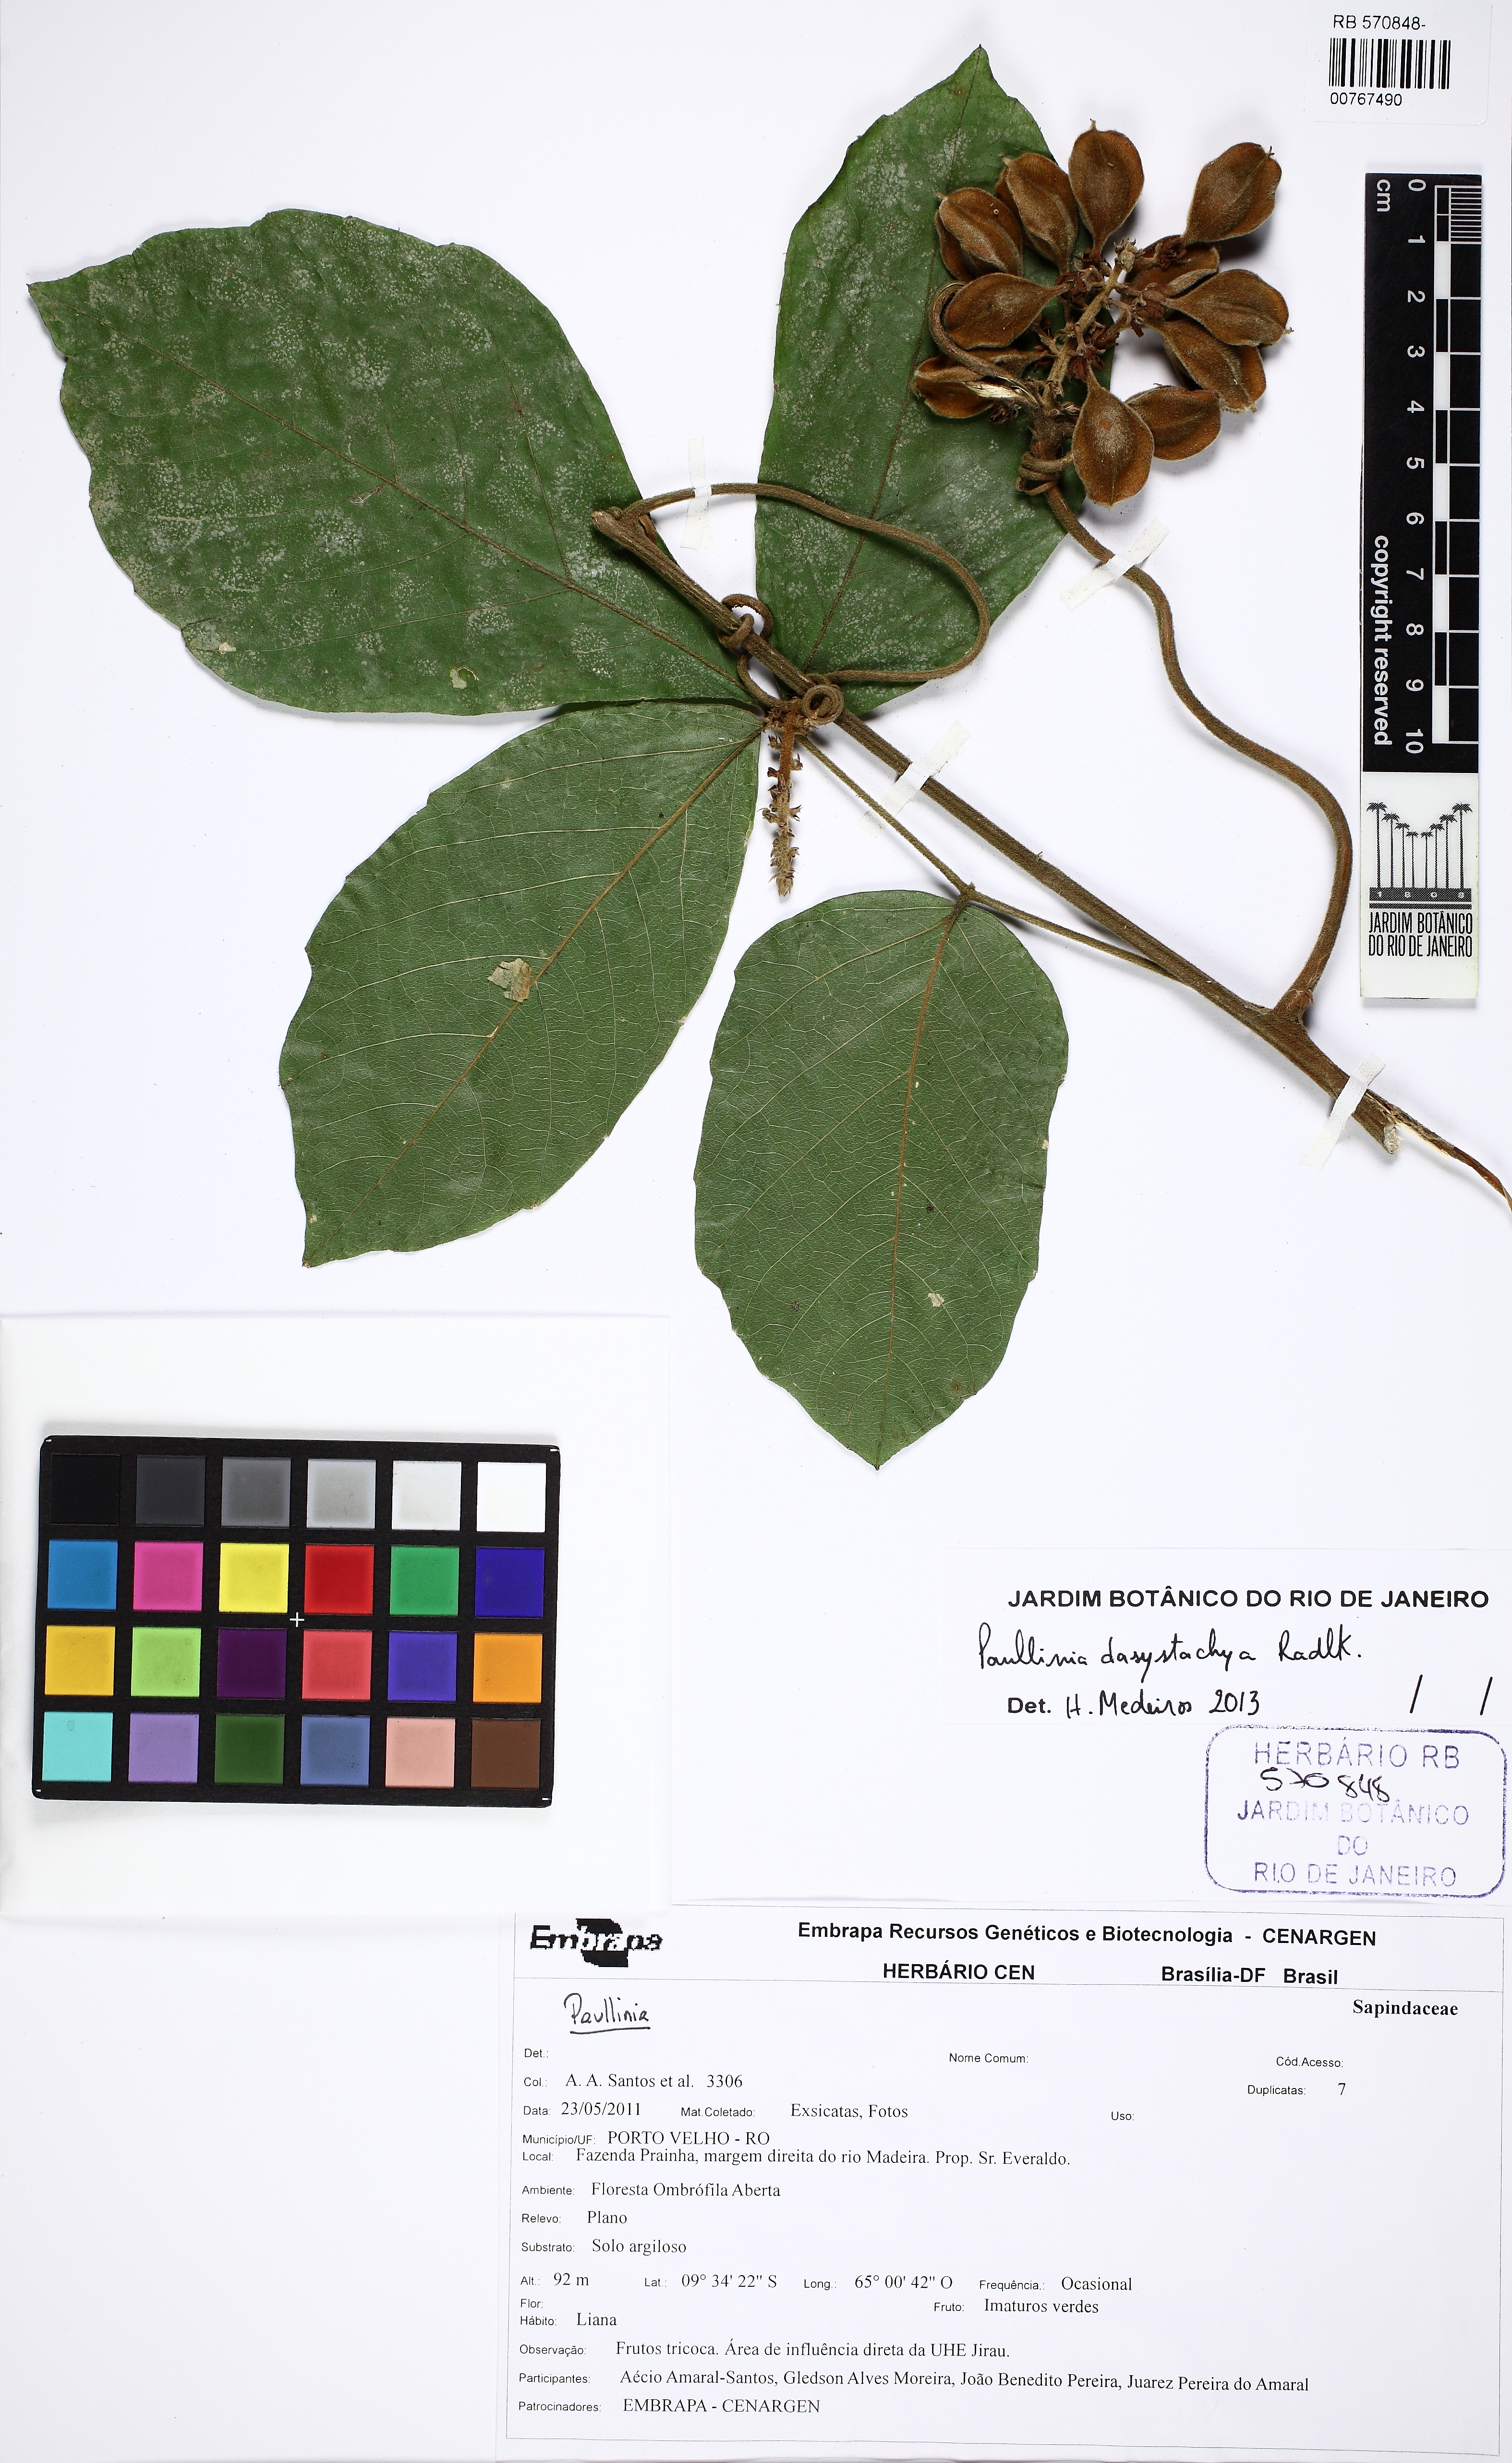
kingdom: Plantae
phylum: Tracheophyta
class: Magnoliopsida
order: Sapindales
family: Sapindaceae
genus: Paullinia
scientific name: Paullinia dasystachya
